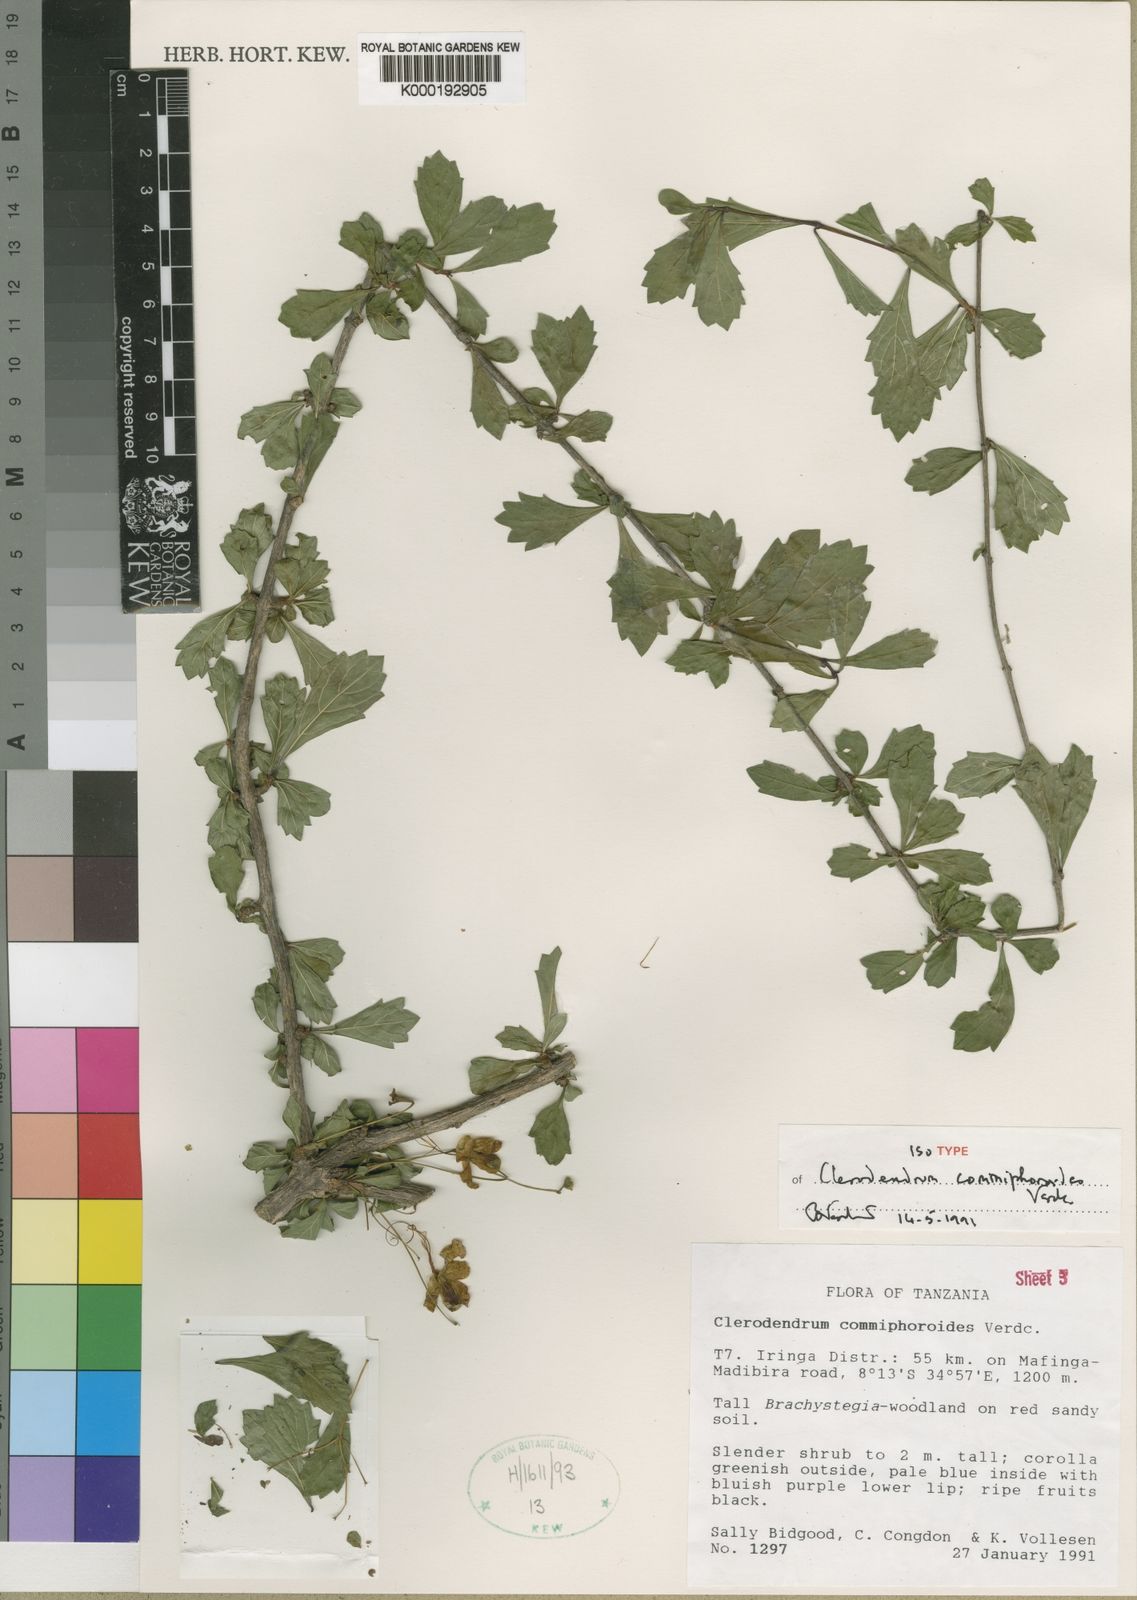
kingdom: Plantae
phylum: Tracheophyta
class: Magnoliopsida
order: Lamiales
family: Lamiaceae
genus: Rotheca
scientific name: Rotheca commiphoroides
